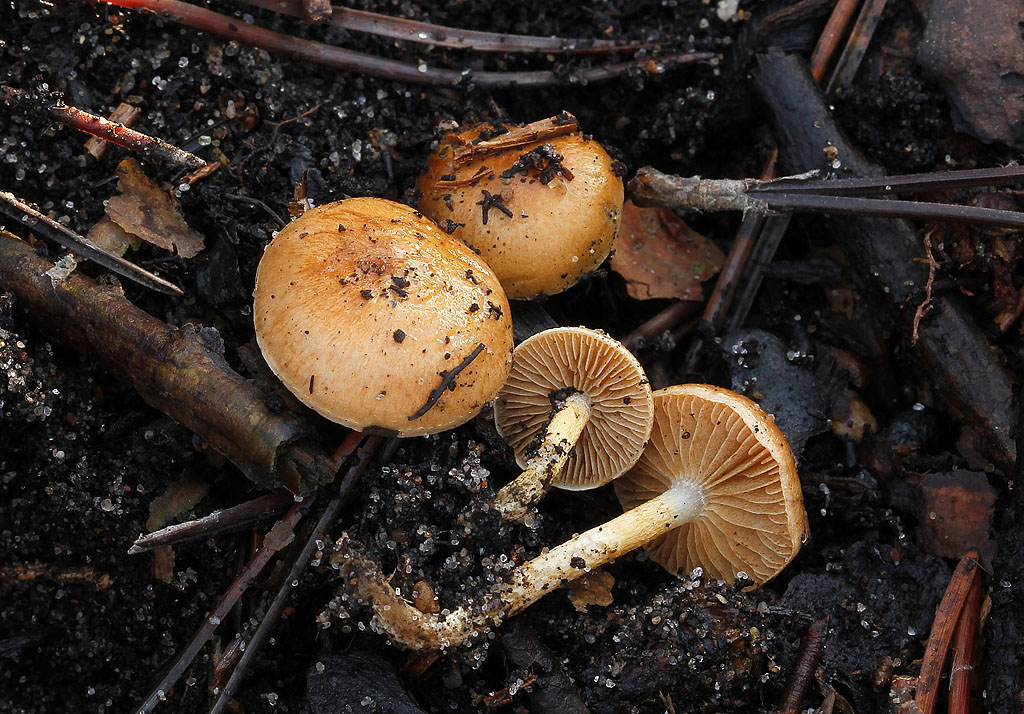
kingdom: Fungi
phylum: Basidiomycota
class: Agaricomycetes
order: Agaricales
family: Strophariaceae
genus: Pholiota
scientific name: Pholiota carbonaria
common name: kul-skælhat
